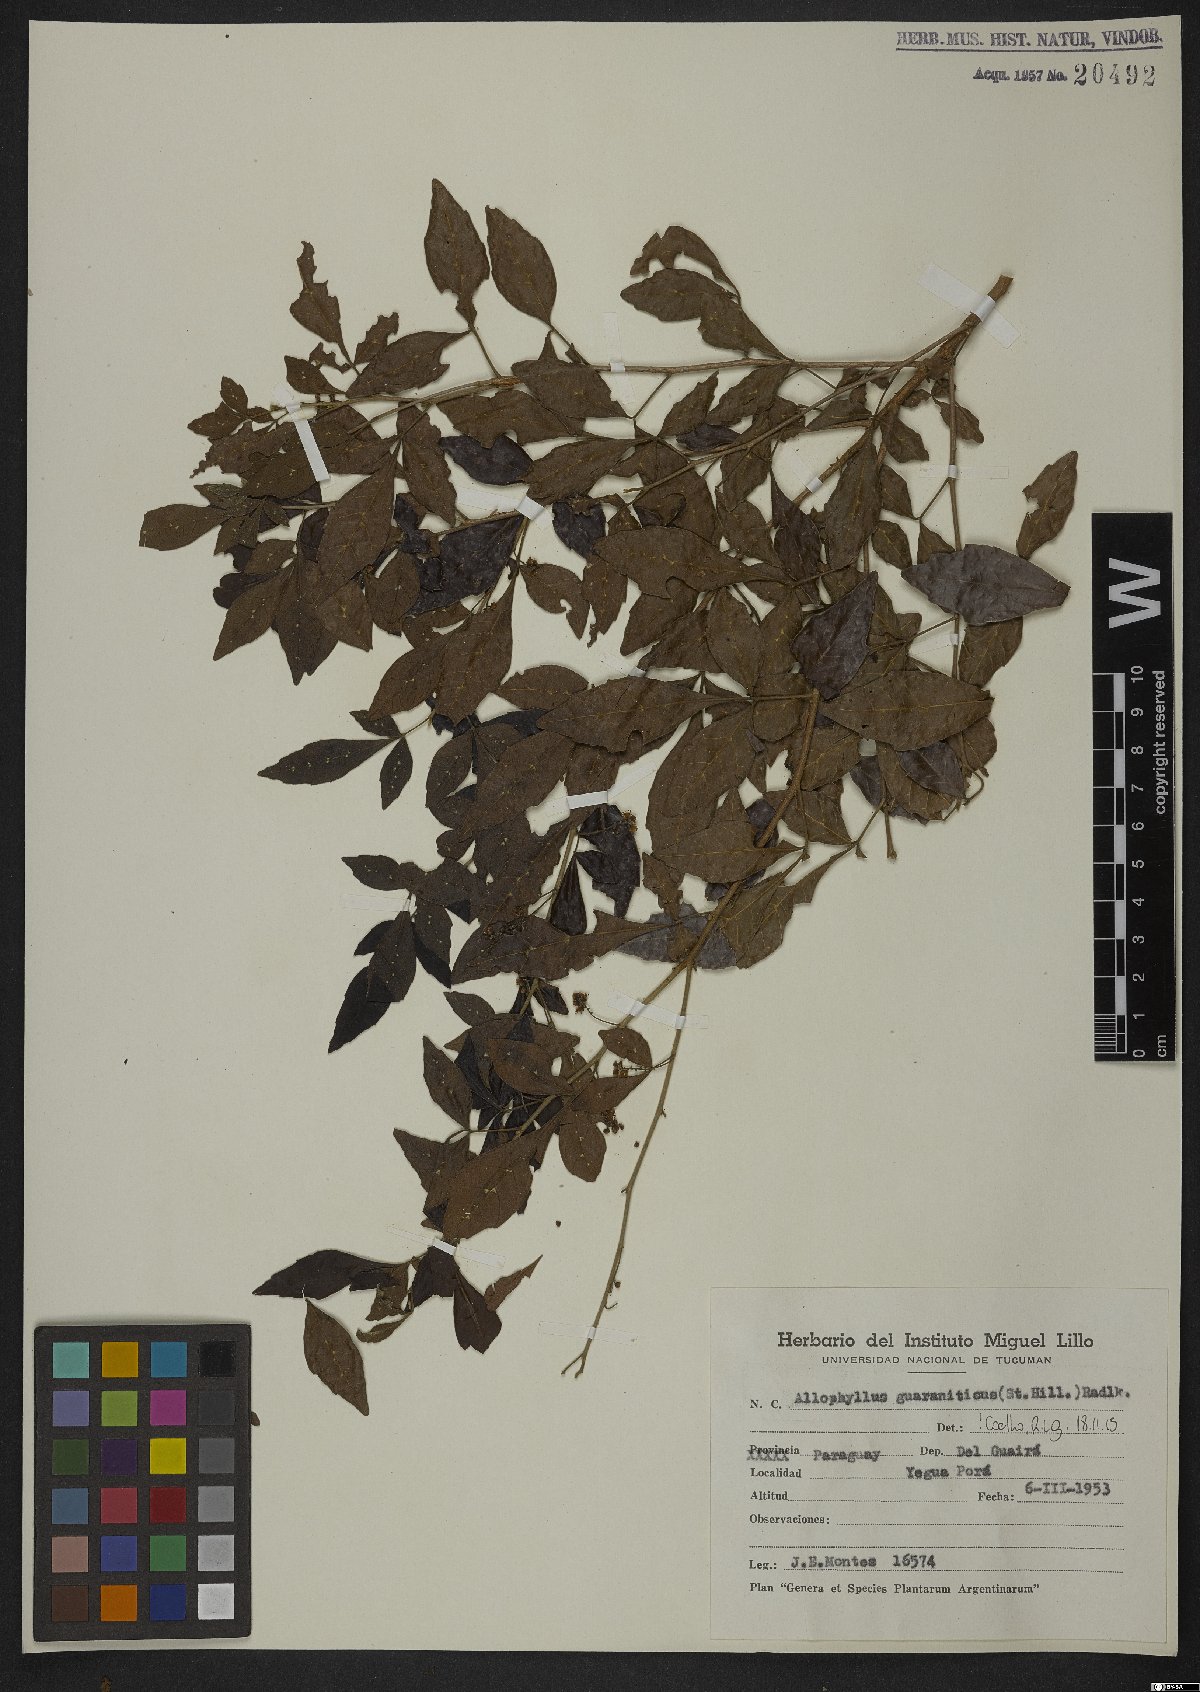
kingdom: Plantae
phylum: Tracheophyta
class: Magnoliopsida
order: Sapindales
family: Sapindaceae
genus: Allophylus
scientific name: Allophylus guaraniticus
